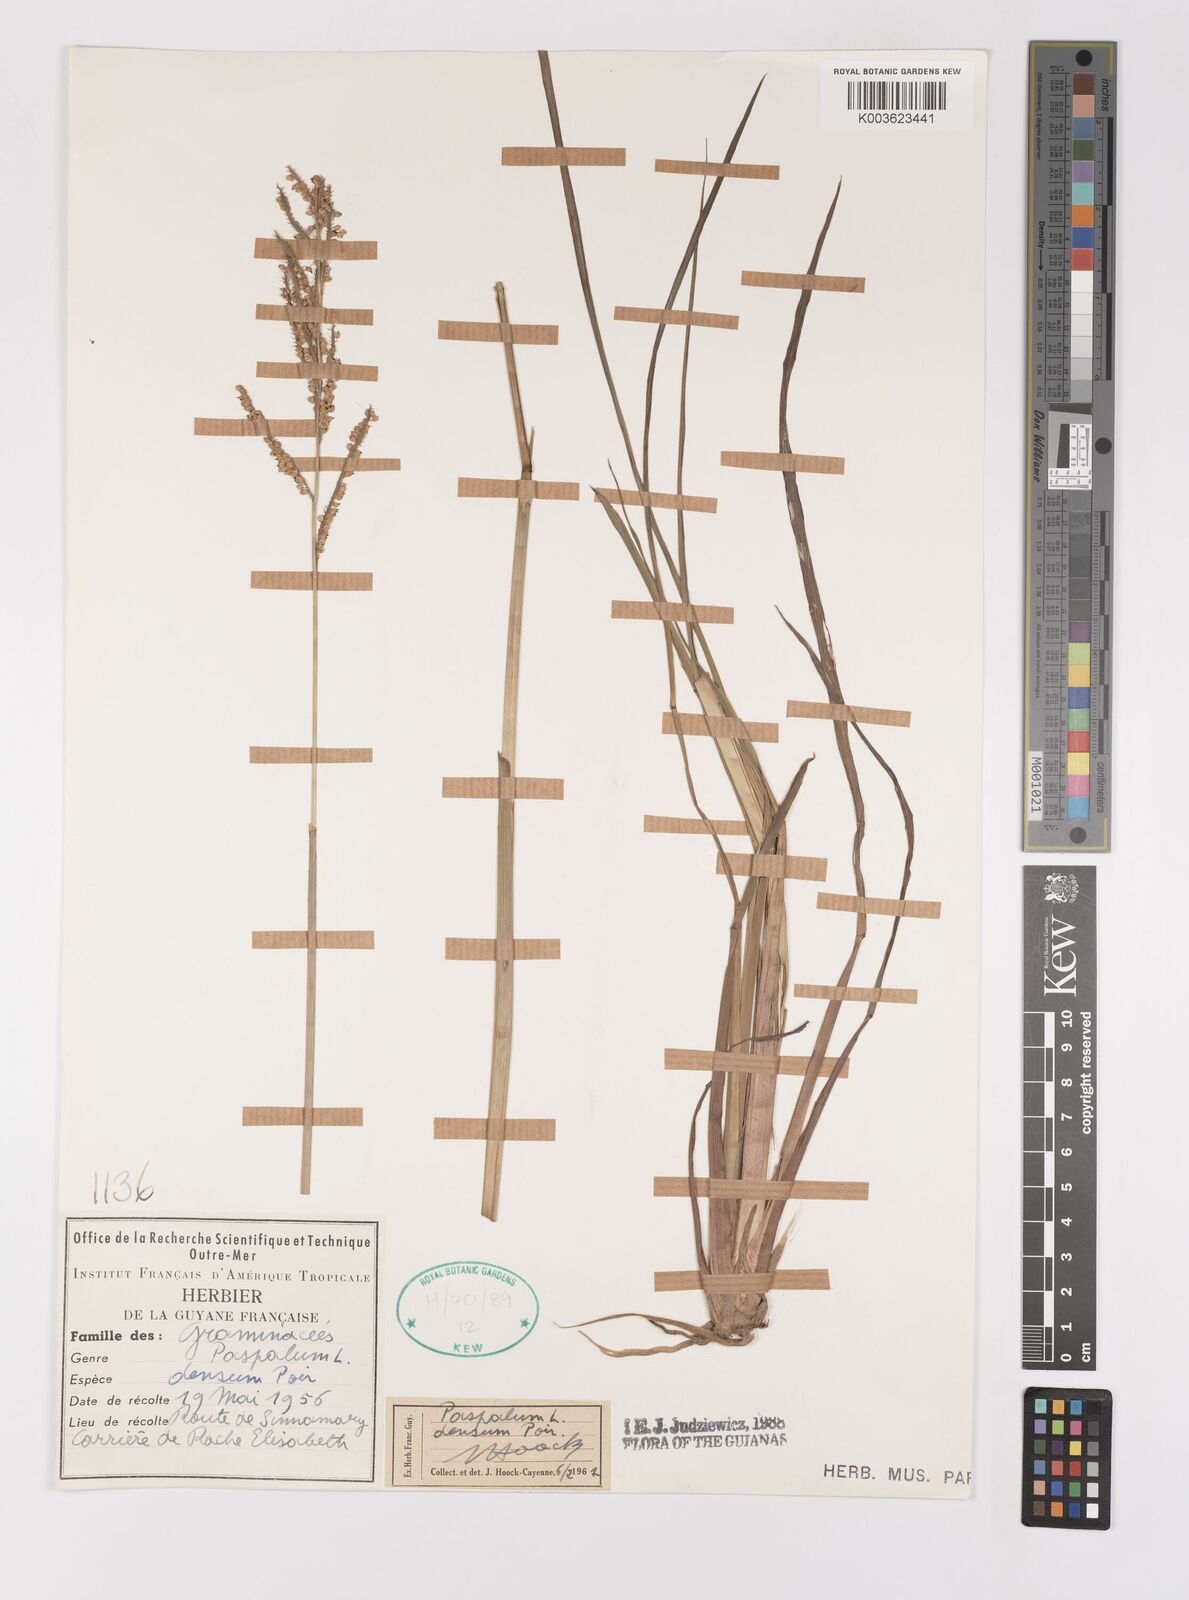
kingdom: Plantae
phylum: Tracheophyta
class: Liliopsida
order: Poales
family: Poaceae
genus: Paspalum
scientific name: Paspalum densum
